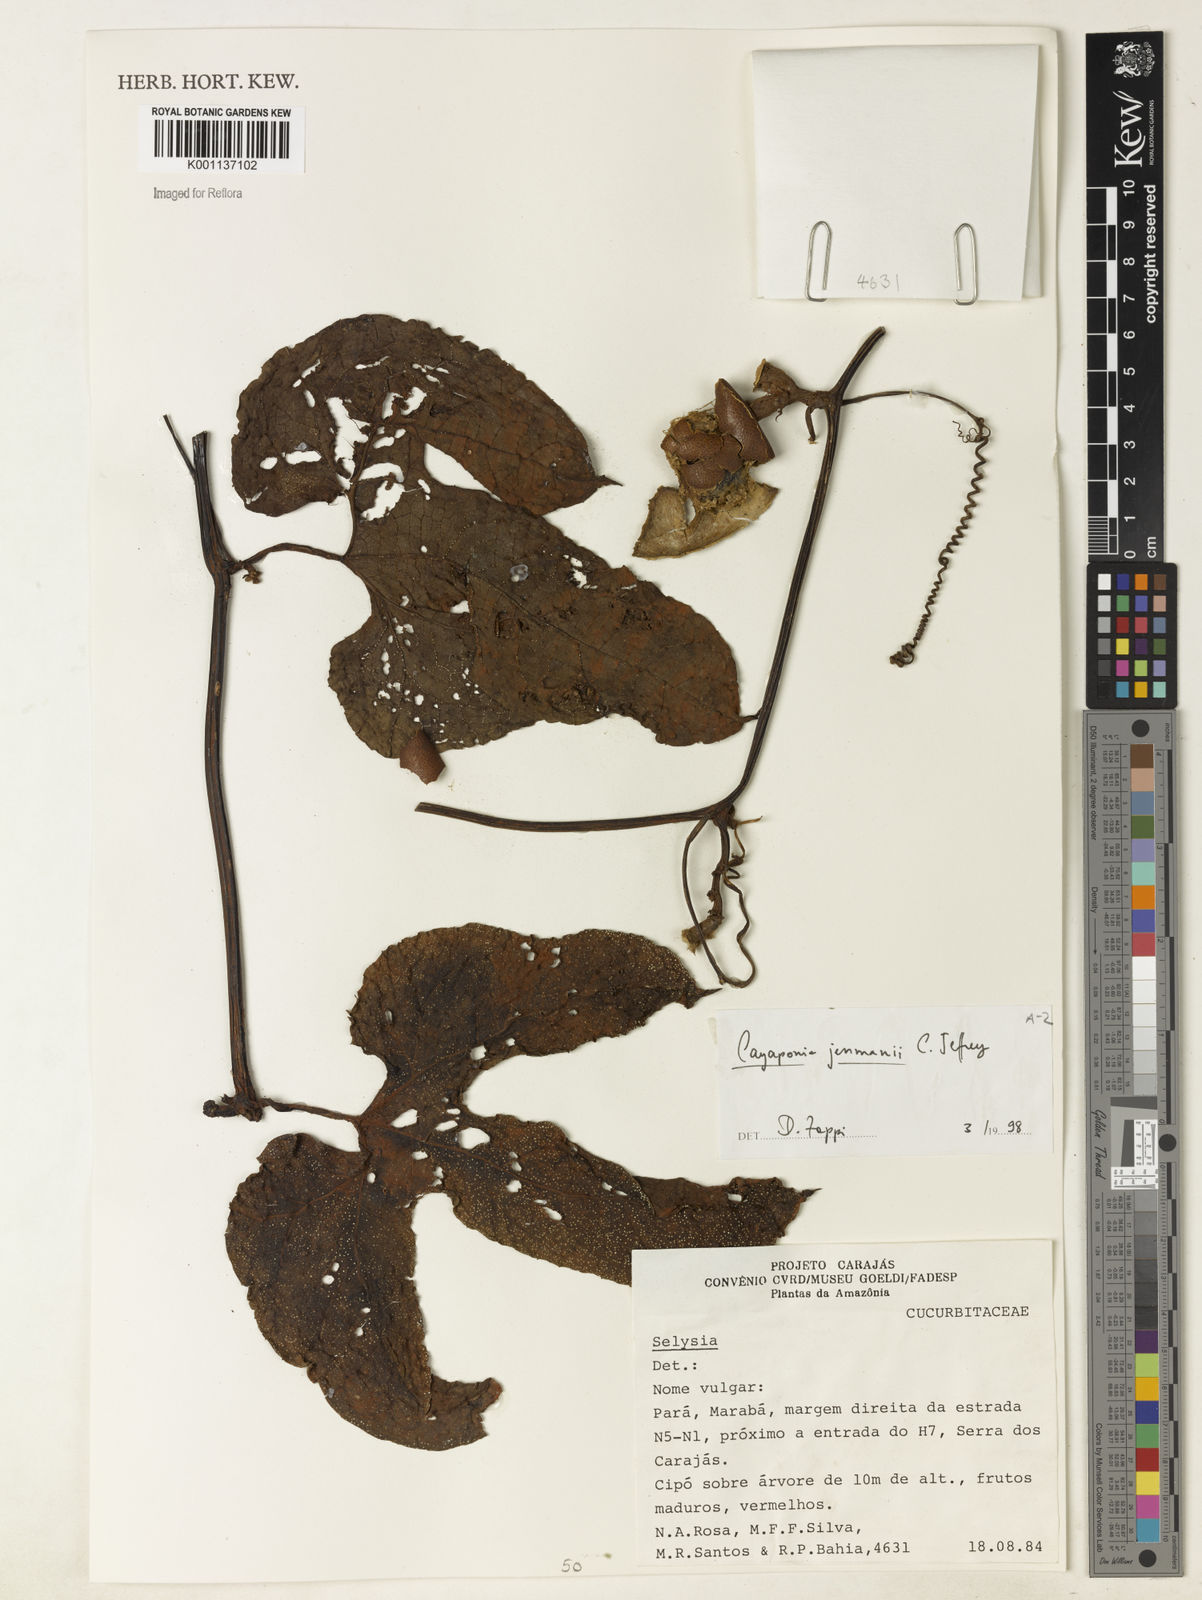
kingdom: Plantae
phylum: Tracheophyta
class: Magnoliopsida
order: Cucurbitales
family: Cucurbitaceae
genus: Cayaponia
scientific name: Cayaponia jenmanii
